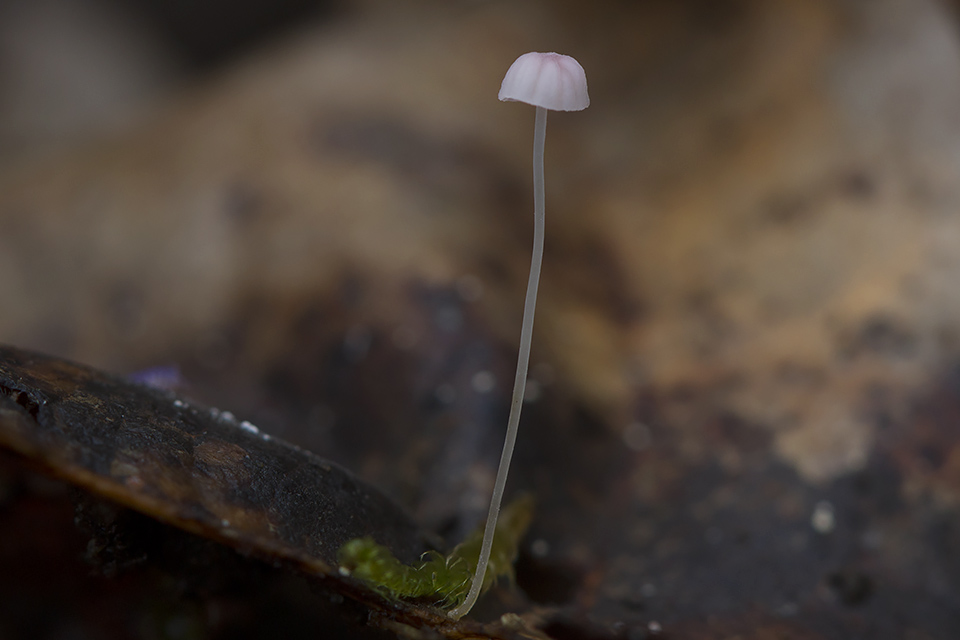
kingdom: Fungi
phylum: Basidiomycota
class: Agaricomycetes
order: Agaricales
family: Mycenaceae
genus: Mycena
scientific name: Mycena smithiana
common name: blegrød huesvamp
